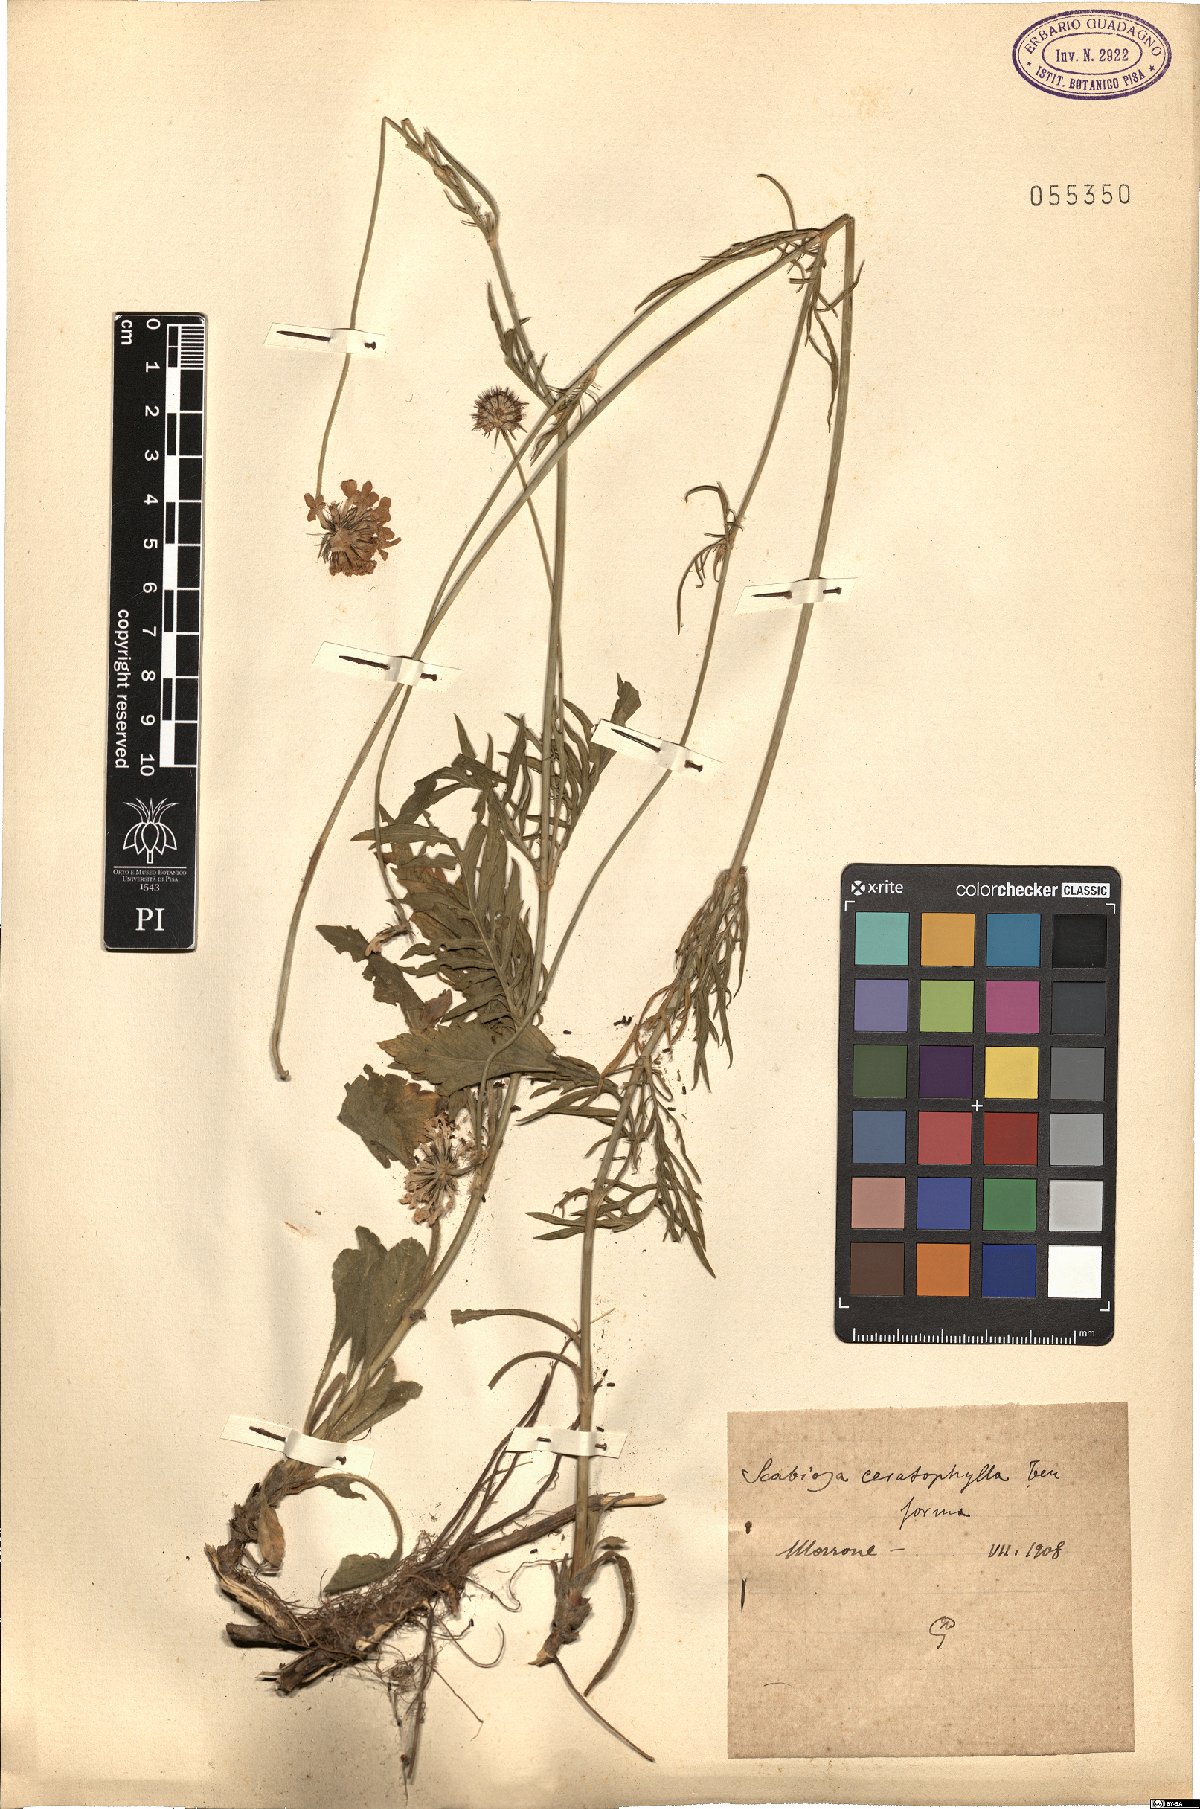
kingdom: Plantae
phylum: Tracheophyta
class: Magnoliopsida
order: Dipsacales
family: Caprifoliaceae
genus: Scabiosa
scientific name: Scabiosa triandra
